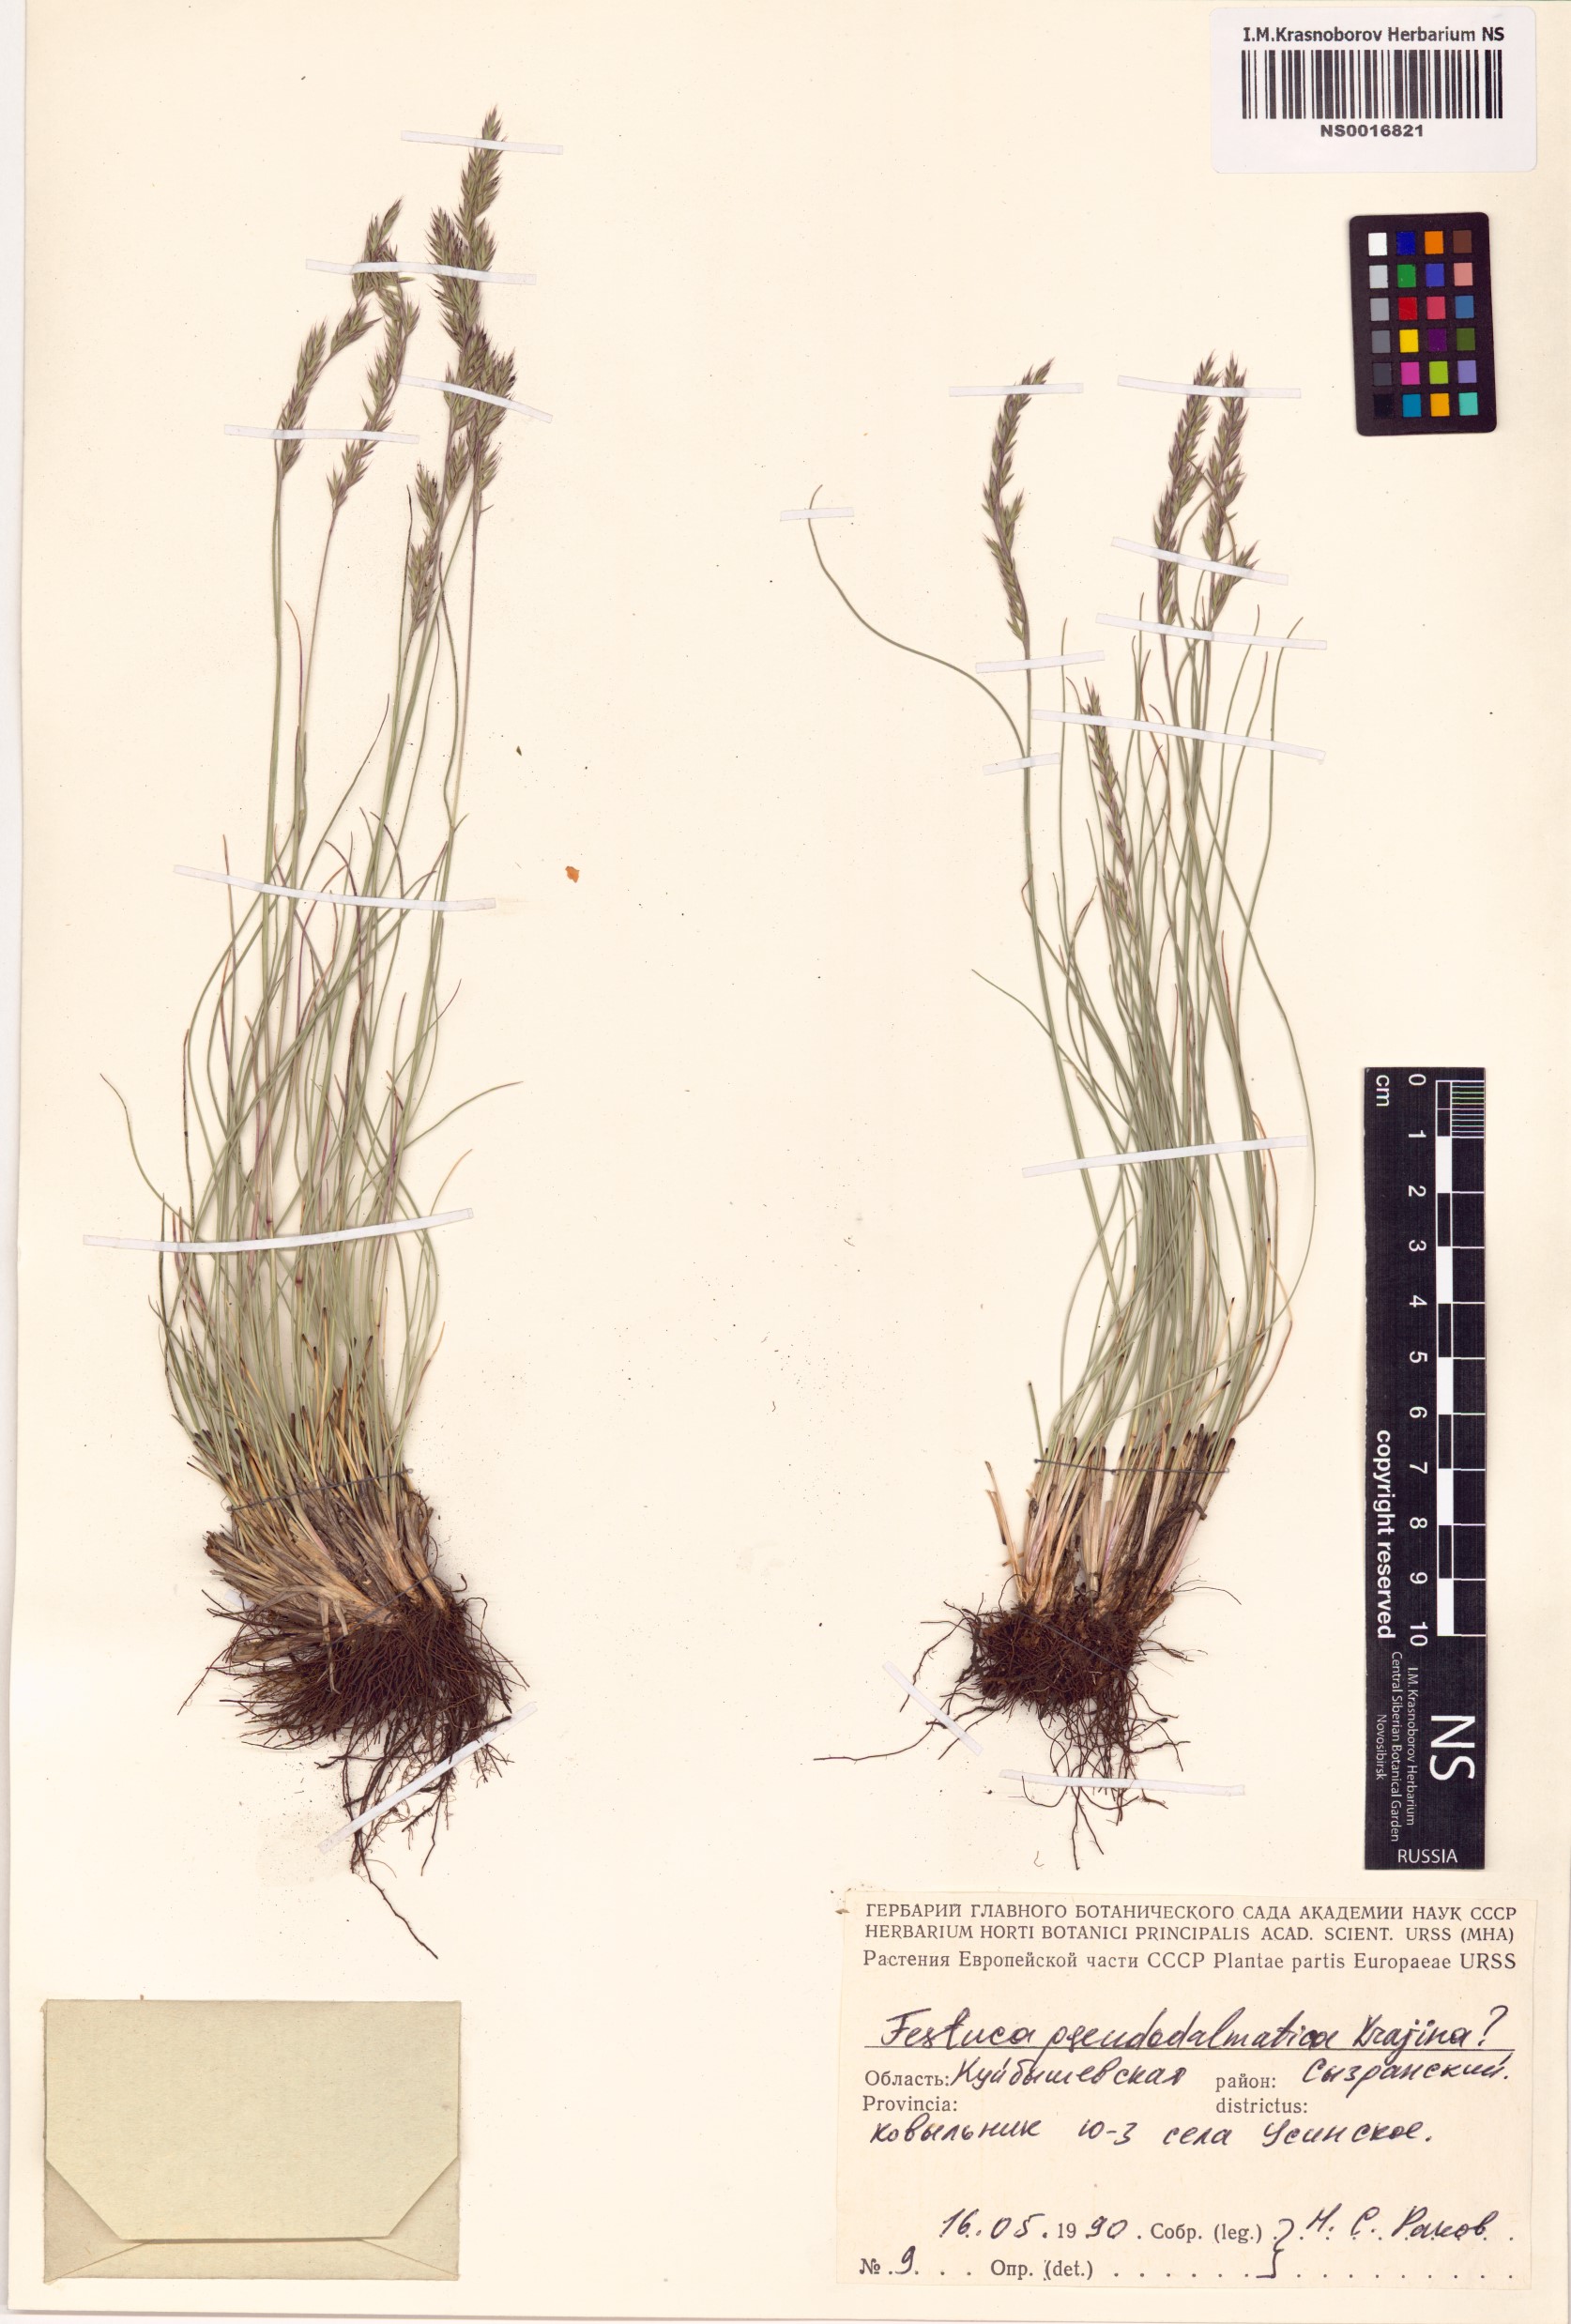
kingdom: Plantae
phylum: Tracheophyta
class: Liliopsida
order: Poales
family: Poaceae
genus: Festuca
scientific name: Festuca pseudodalmatica
